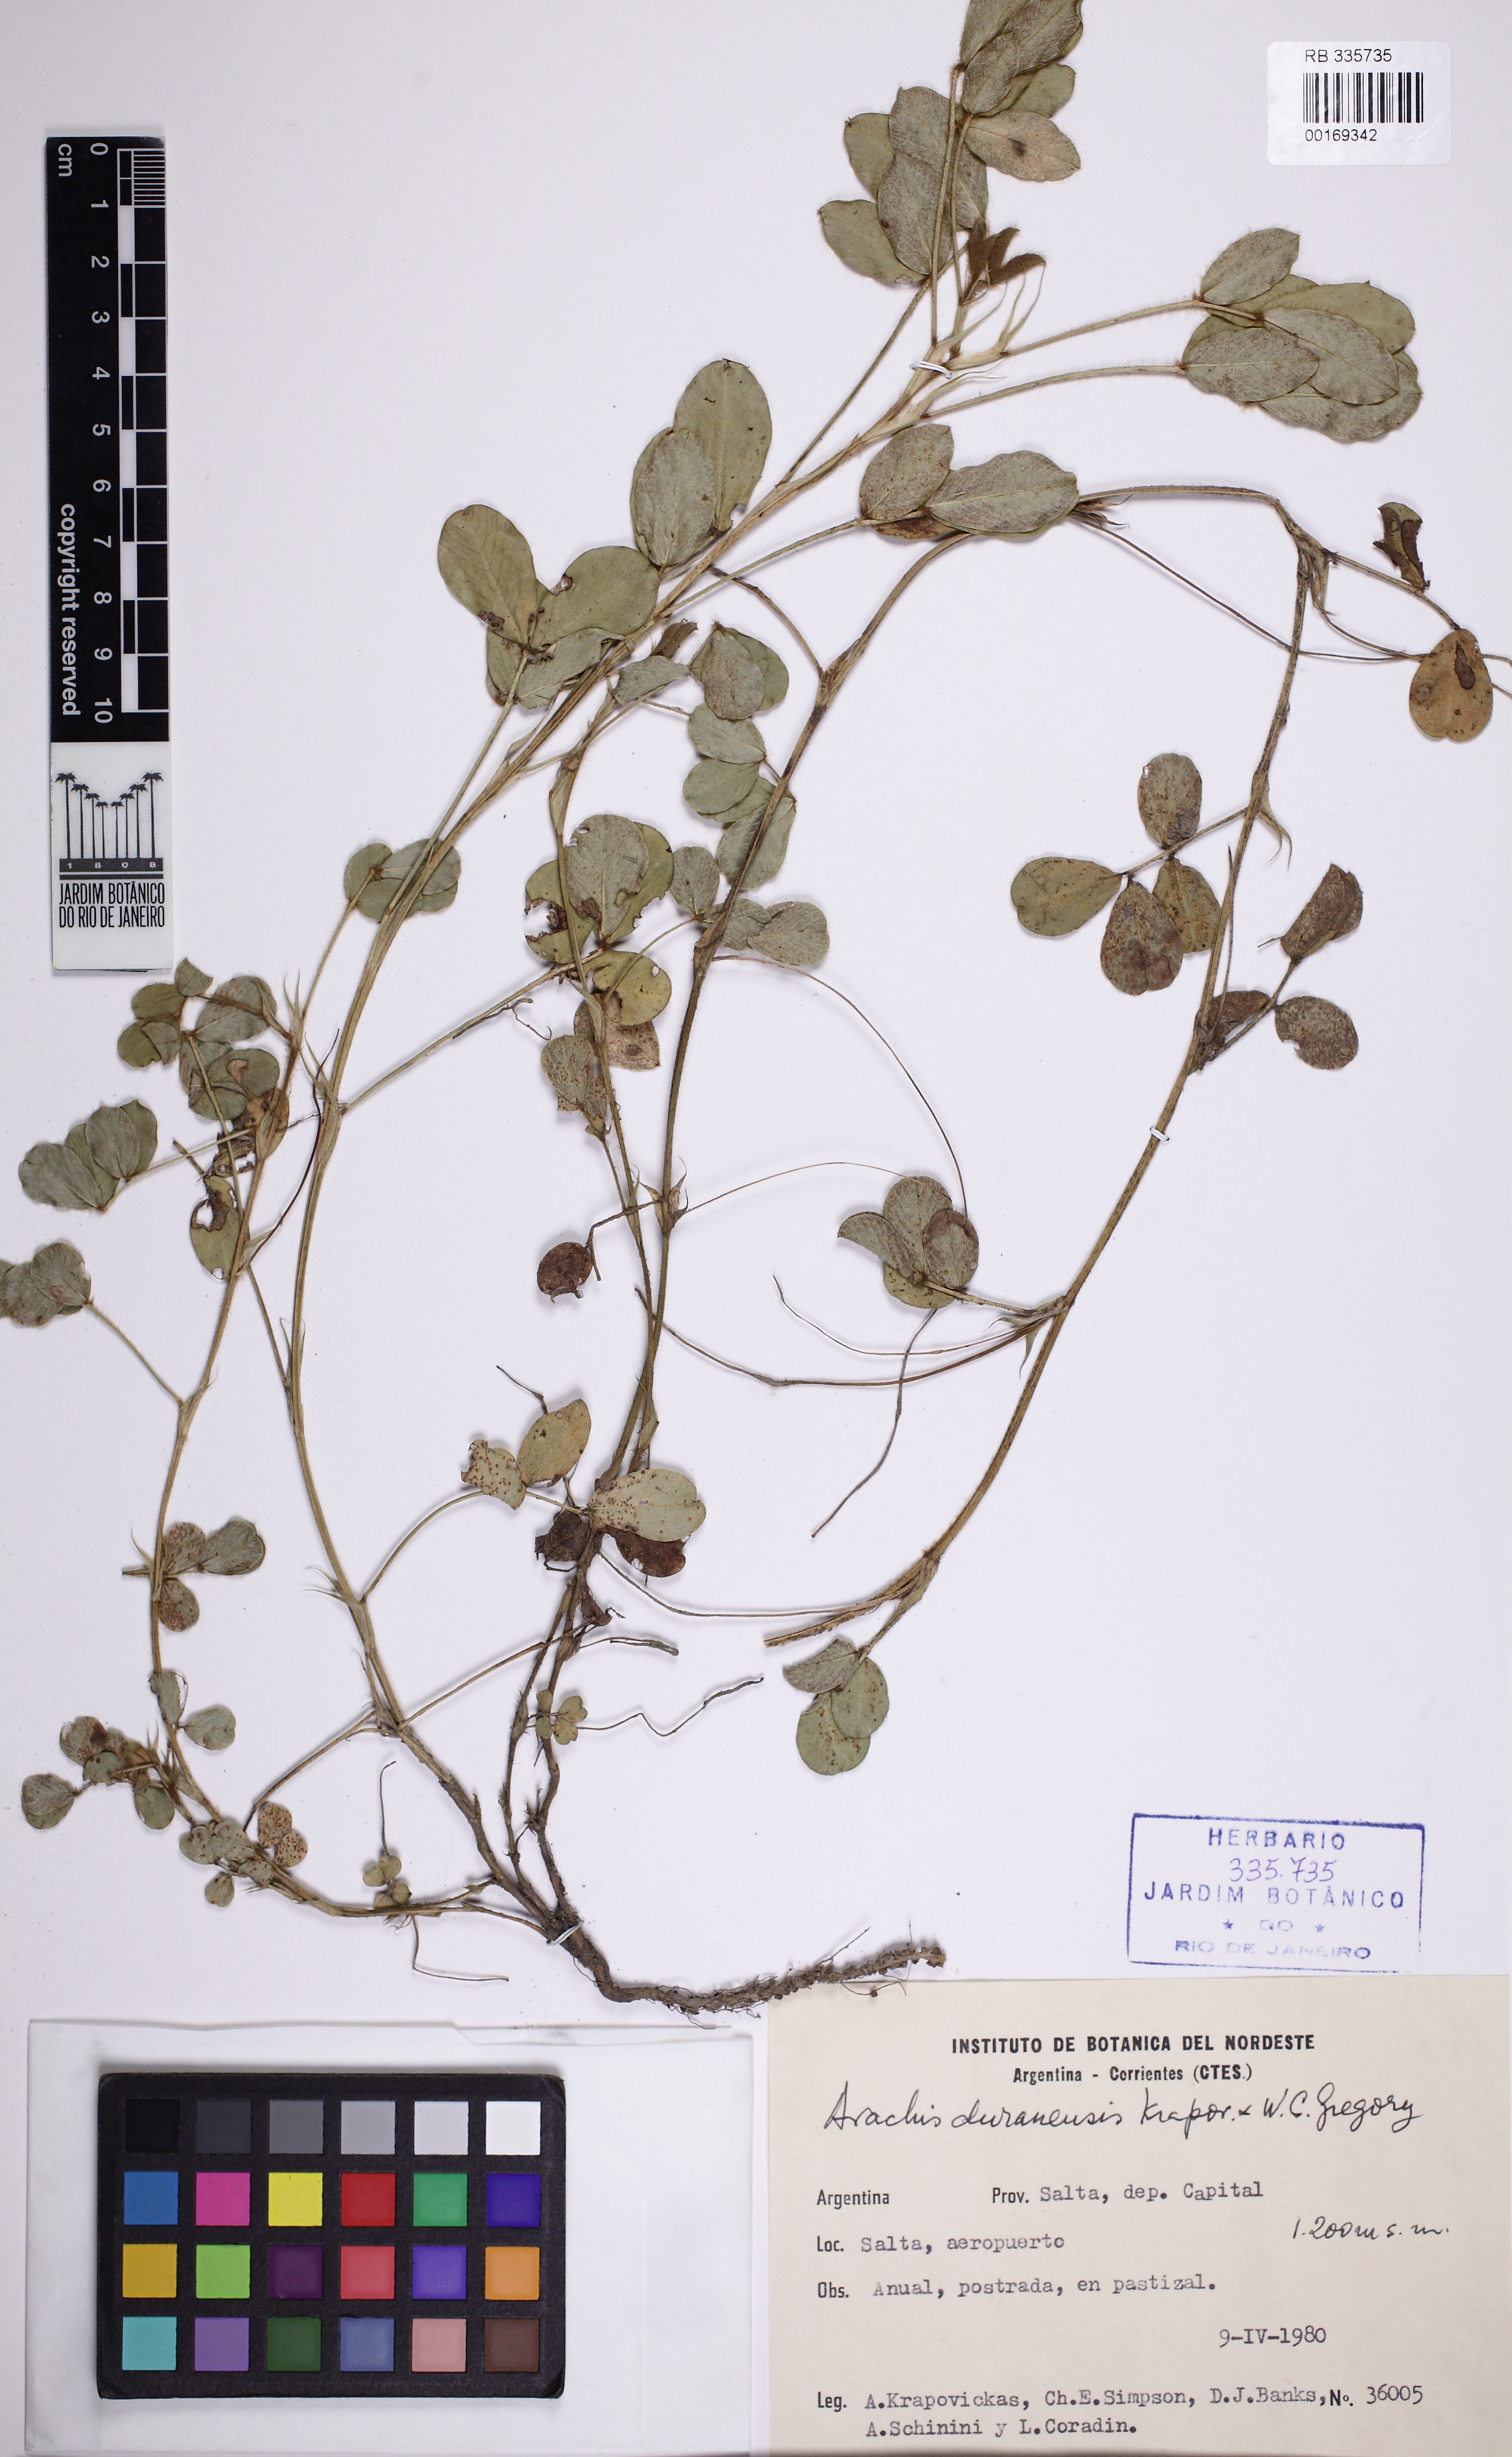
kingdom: Plantae
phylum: Tracheophyta
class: Magnoliopsida
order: Fabales
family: Fabaceae
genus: Arachis
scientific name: Arachis duranensis
